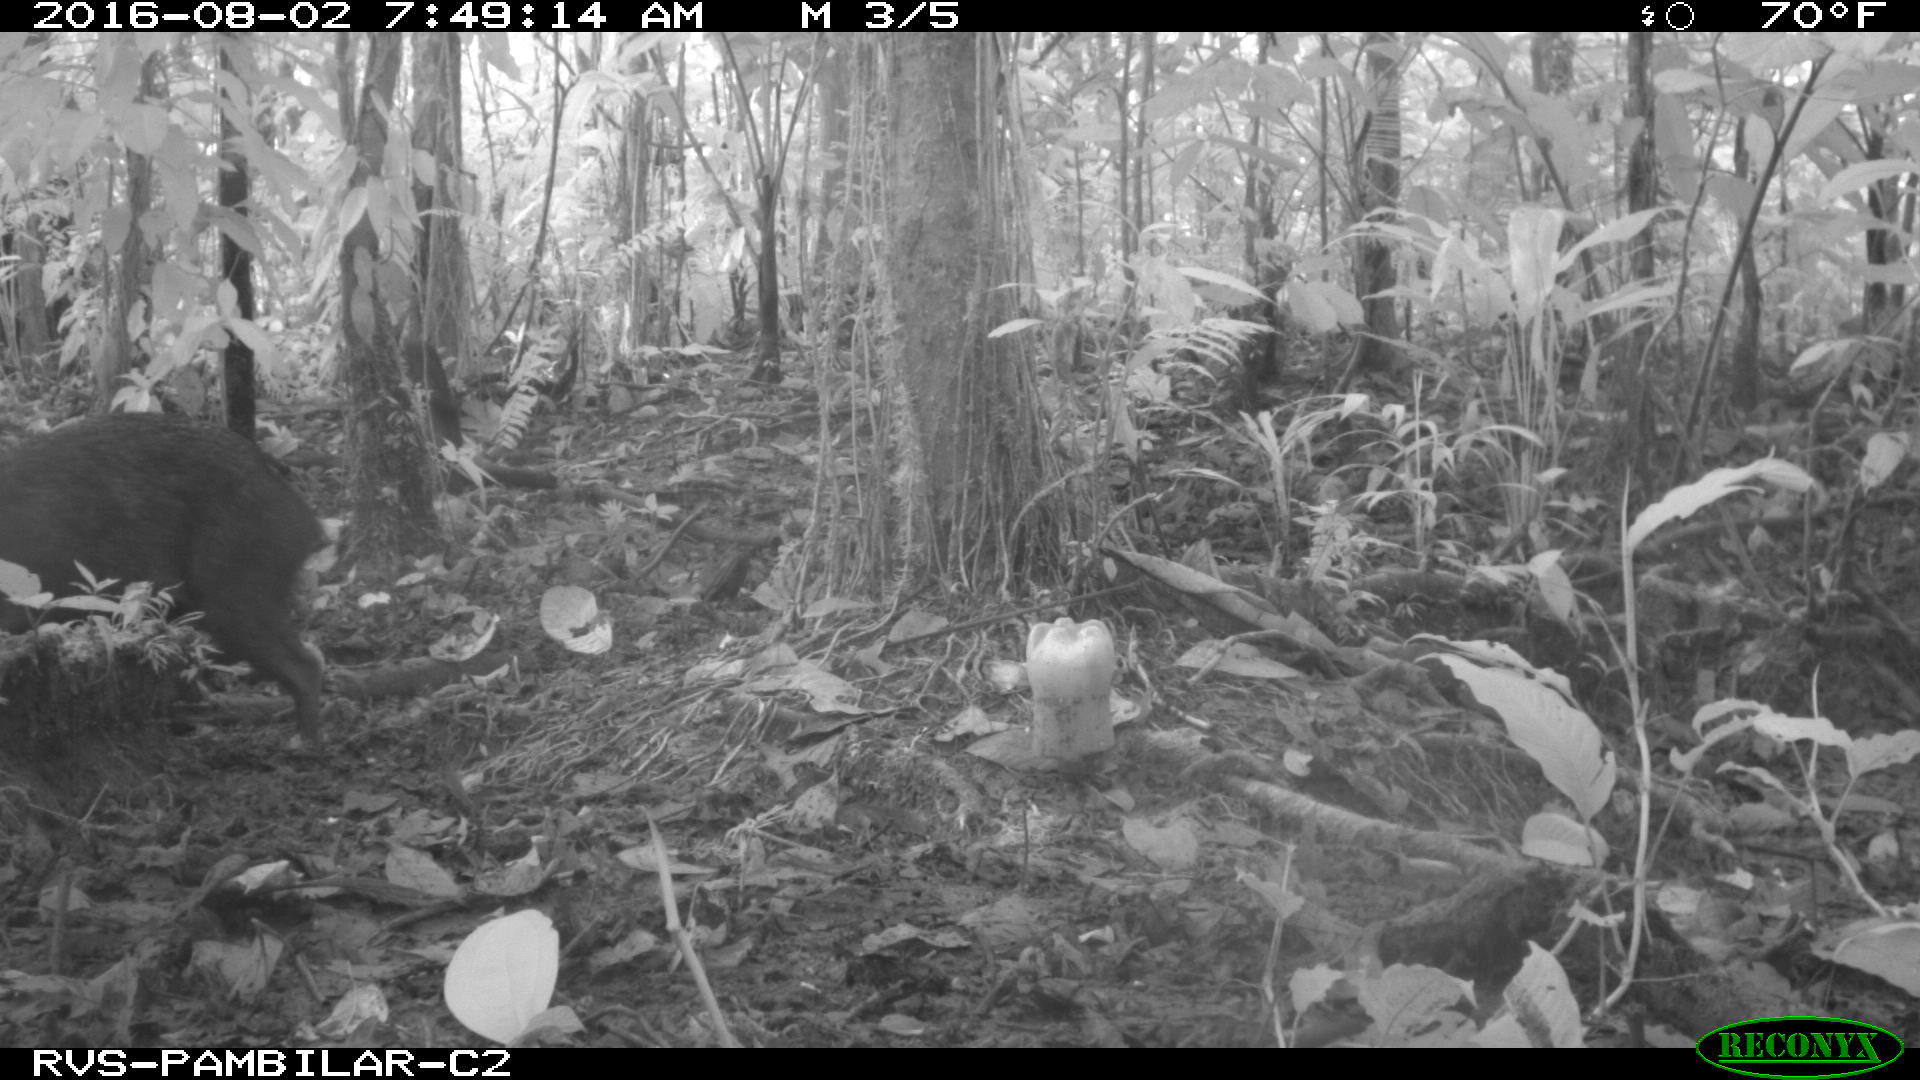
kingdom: Animalia
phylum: Chordata
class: Mammalia
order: Artiodactyla
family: Tayassuidae
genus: Pecari
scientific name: Pecari tajacu
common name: Collared peccary
